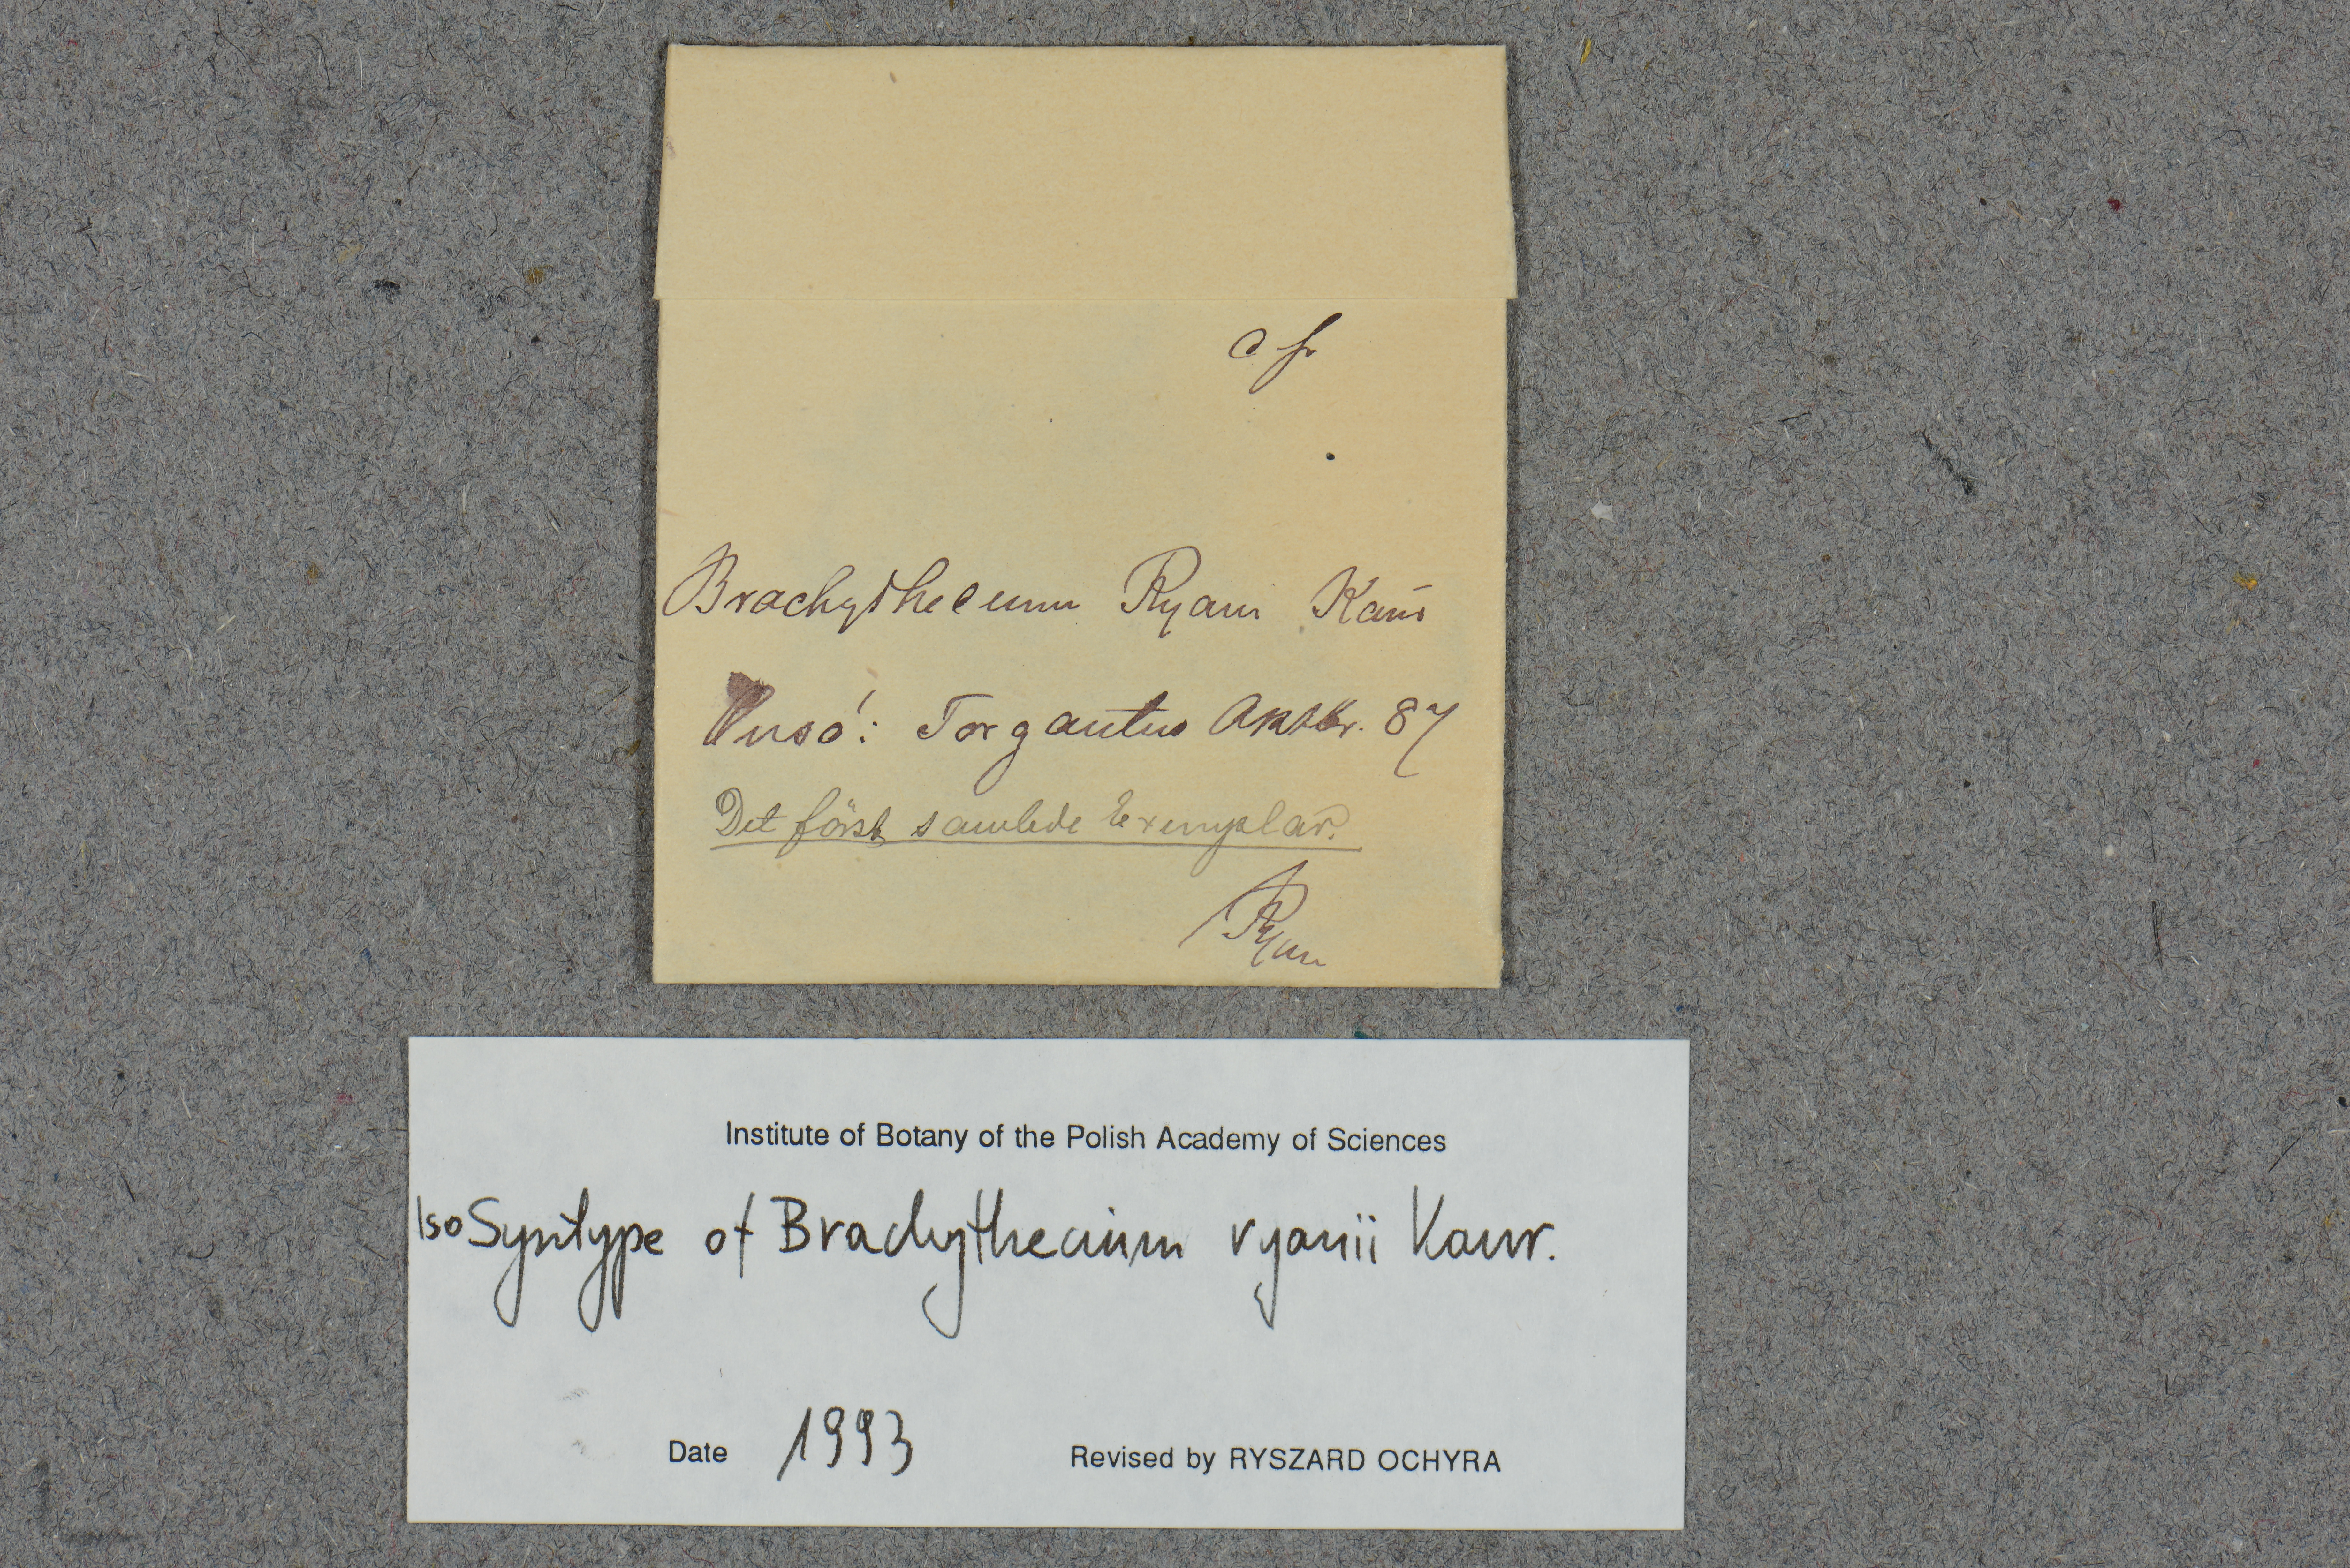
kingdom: Plantae
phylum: Bryophyta
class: Bryopsida
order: Hypnales
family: Brachytheciaceae
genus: Brachythecium
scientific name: Brachythecium campestre
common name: Field ragged moss
